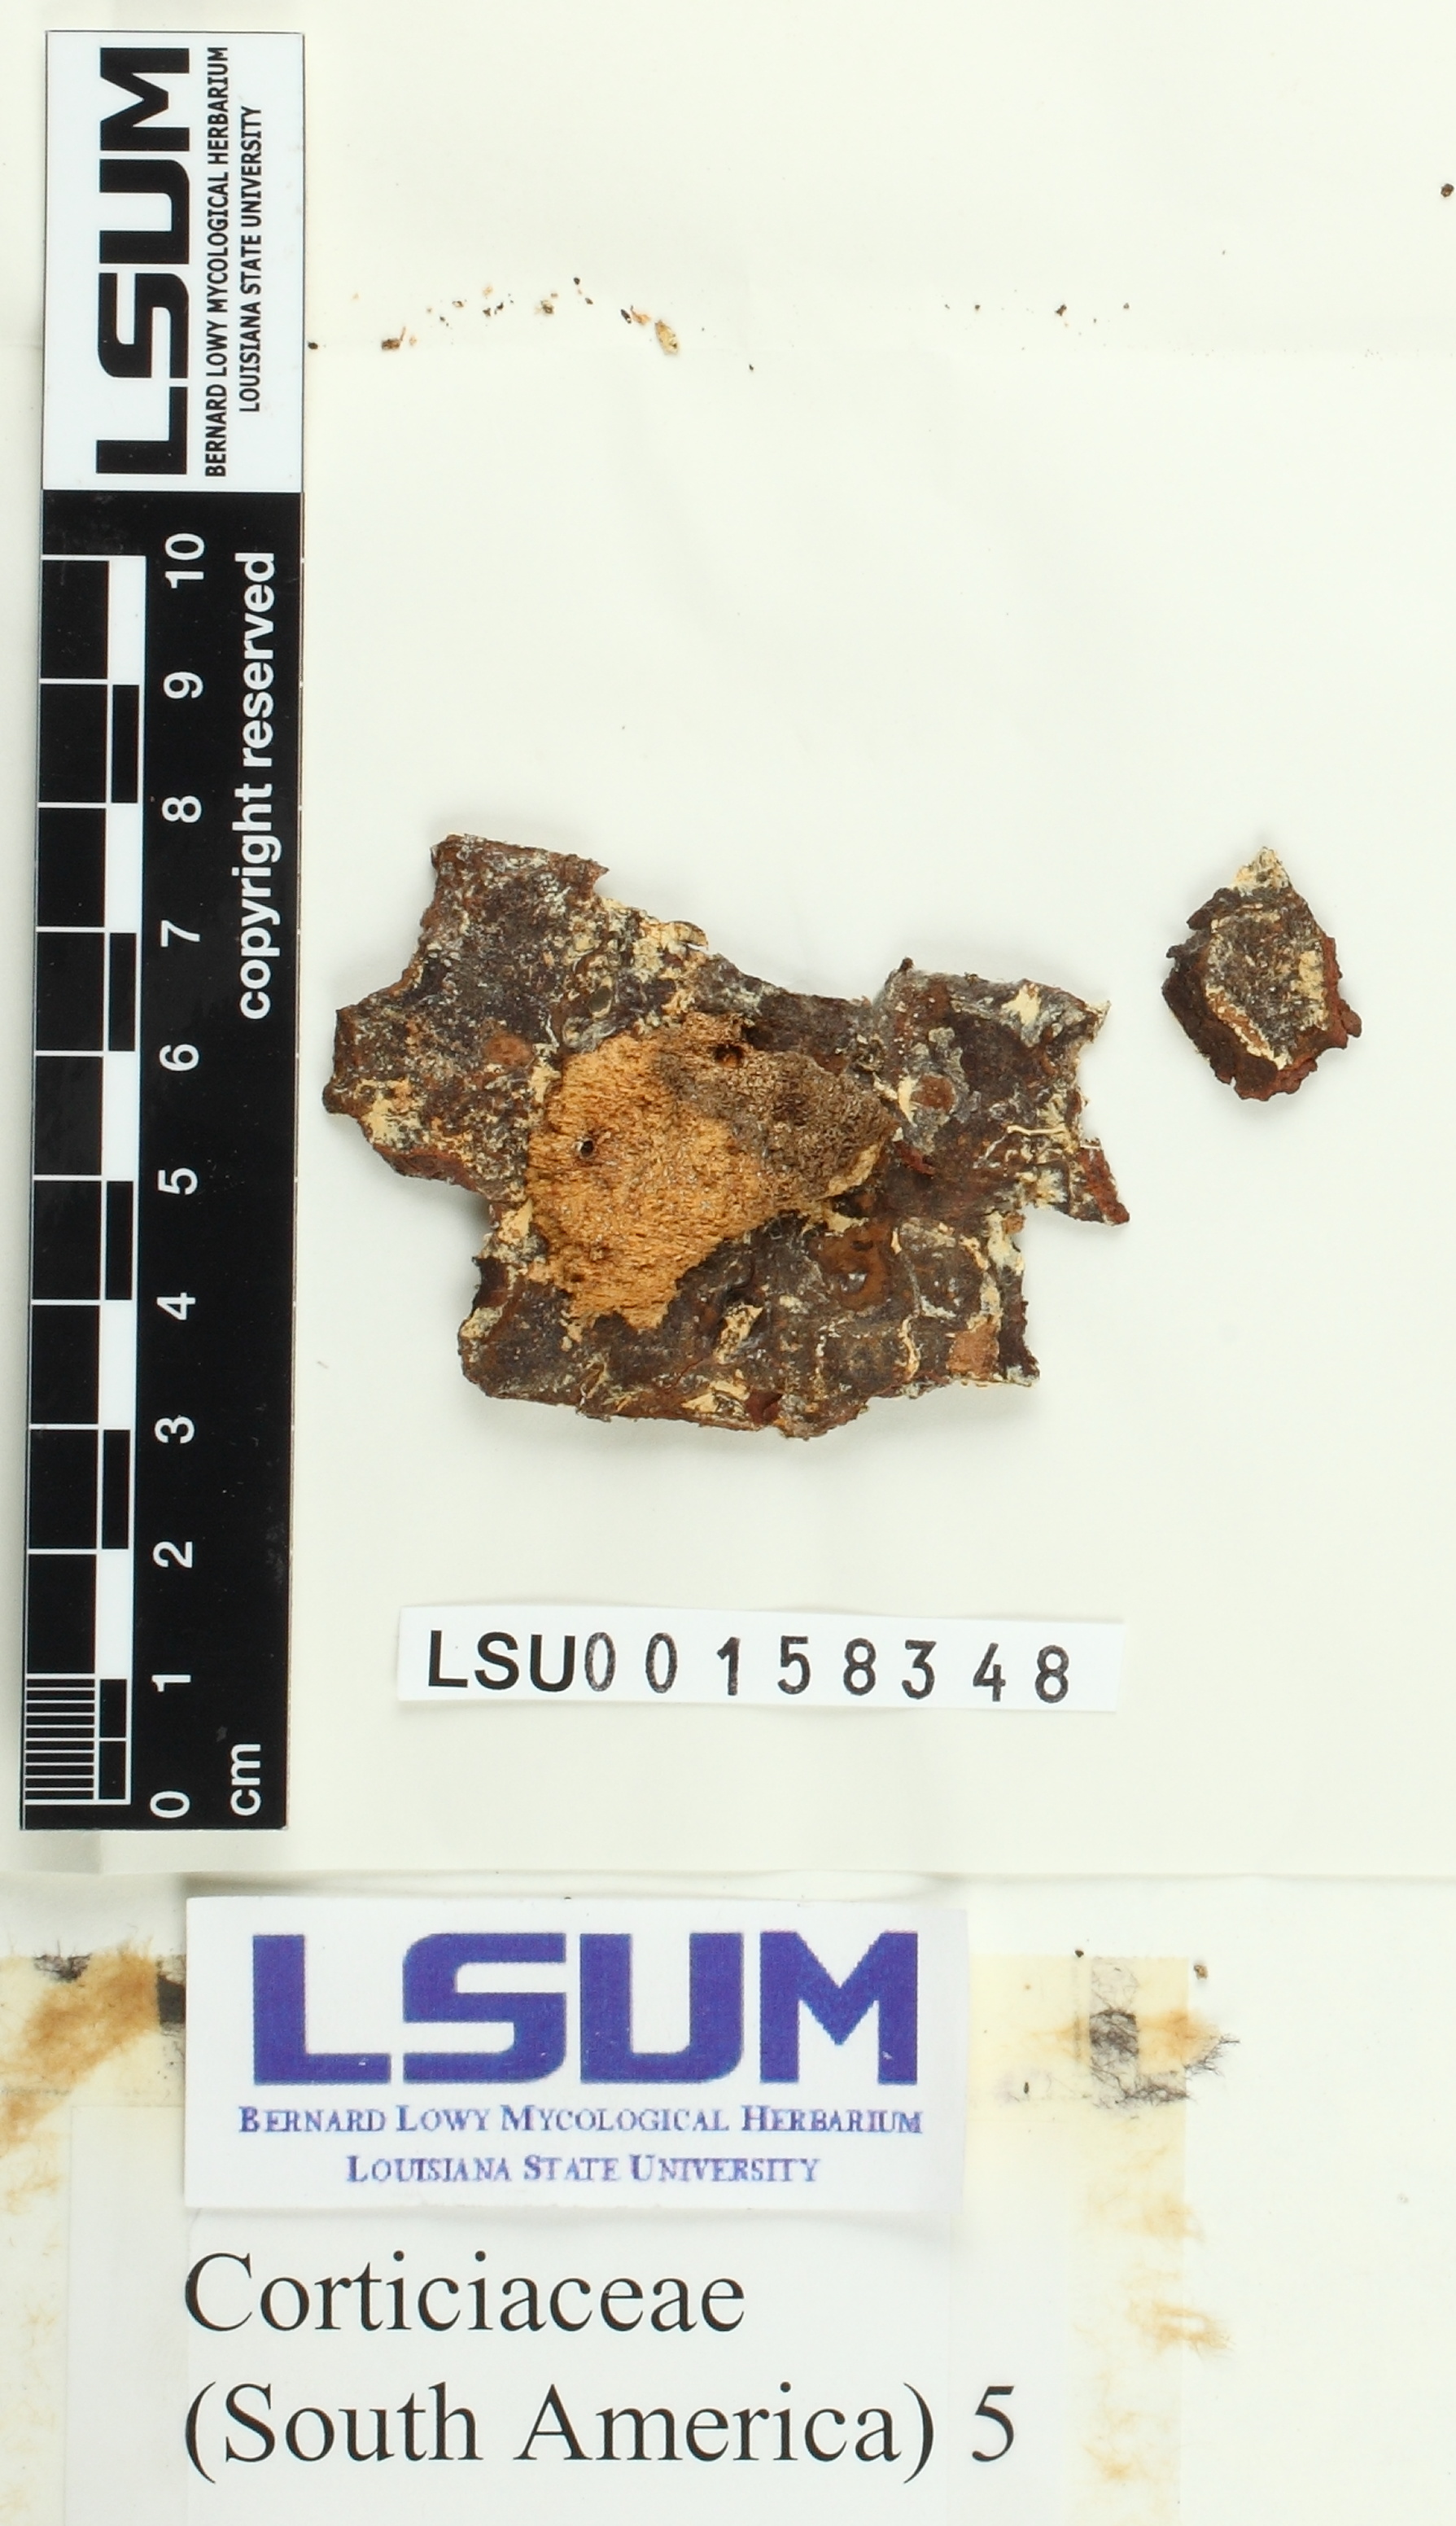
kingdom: Fungi
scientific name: Fungi
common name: Fungi
